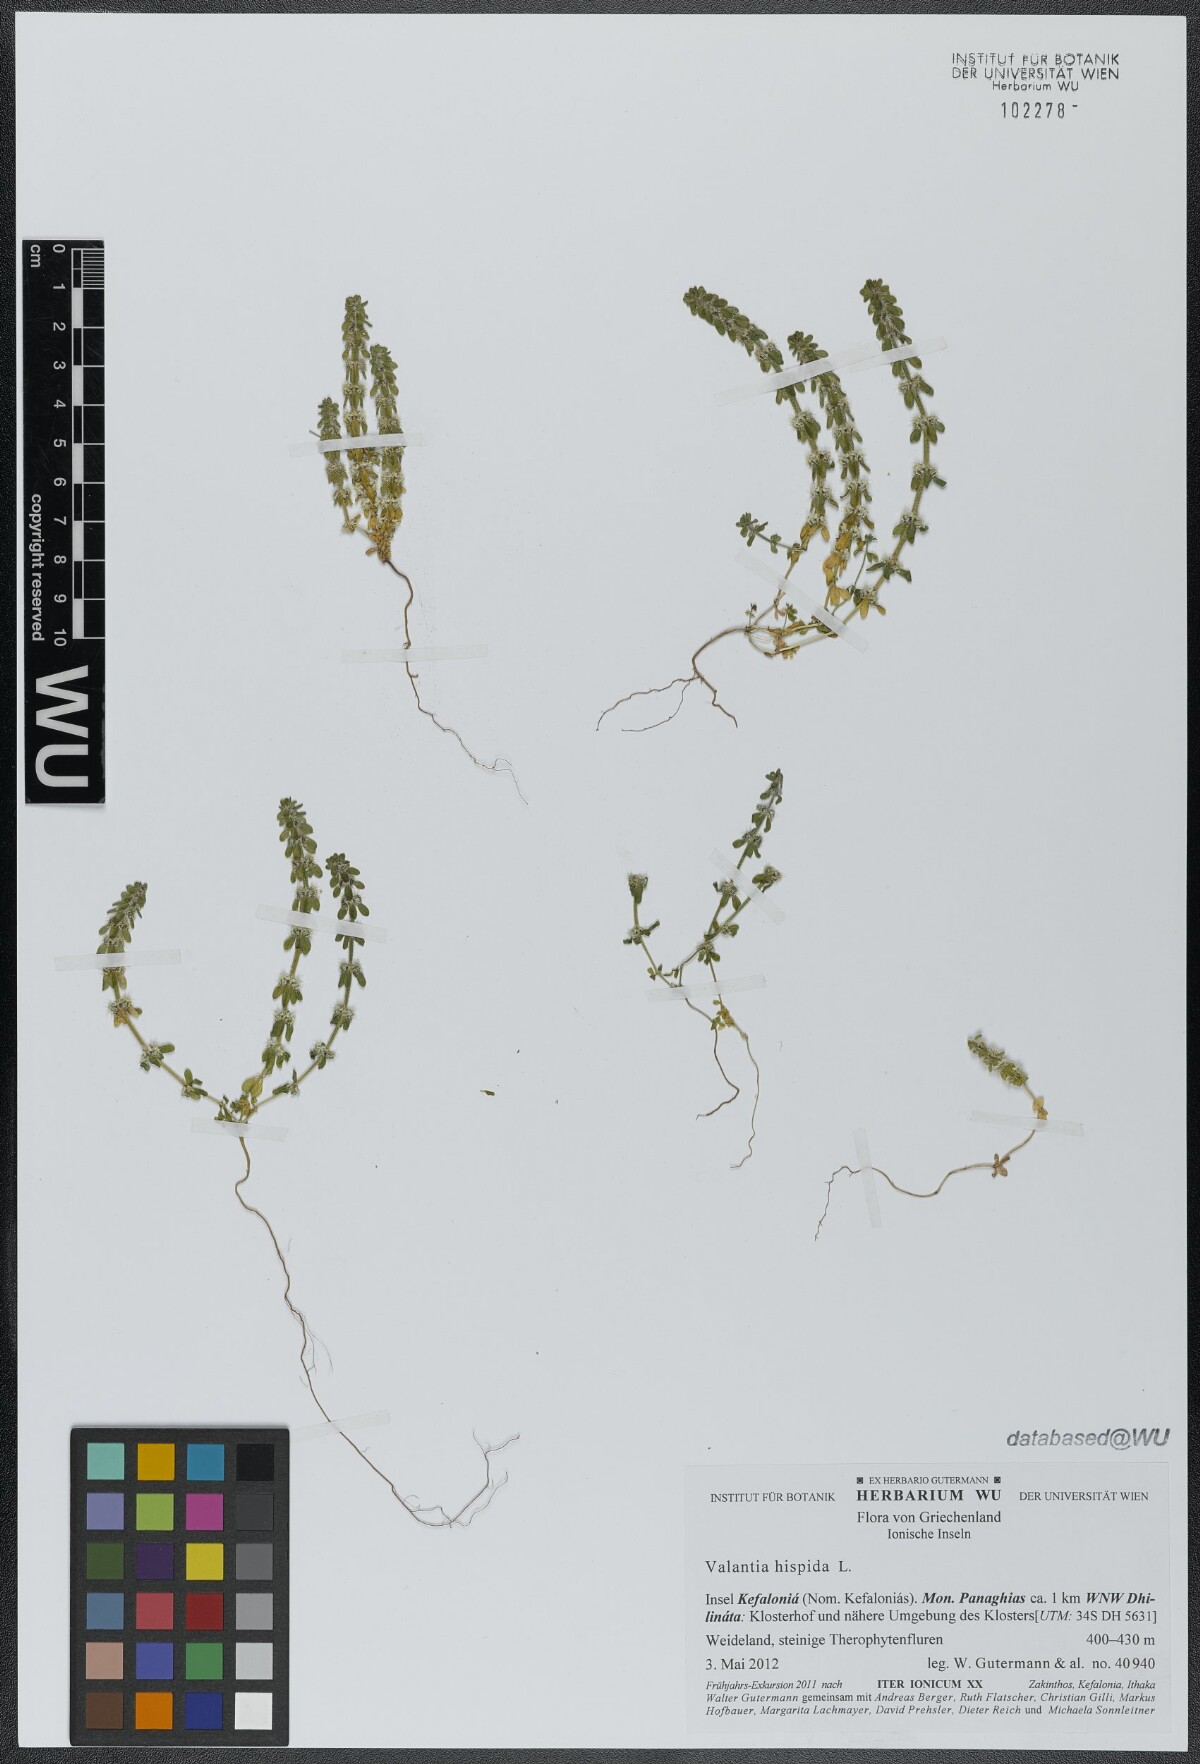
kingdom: Plantae
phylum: Tracheophyta
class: Magnoliopsida
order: Gentianales
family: Rubiaceae
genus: Valantia
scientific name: Valantia hispida
